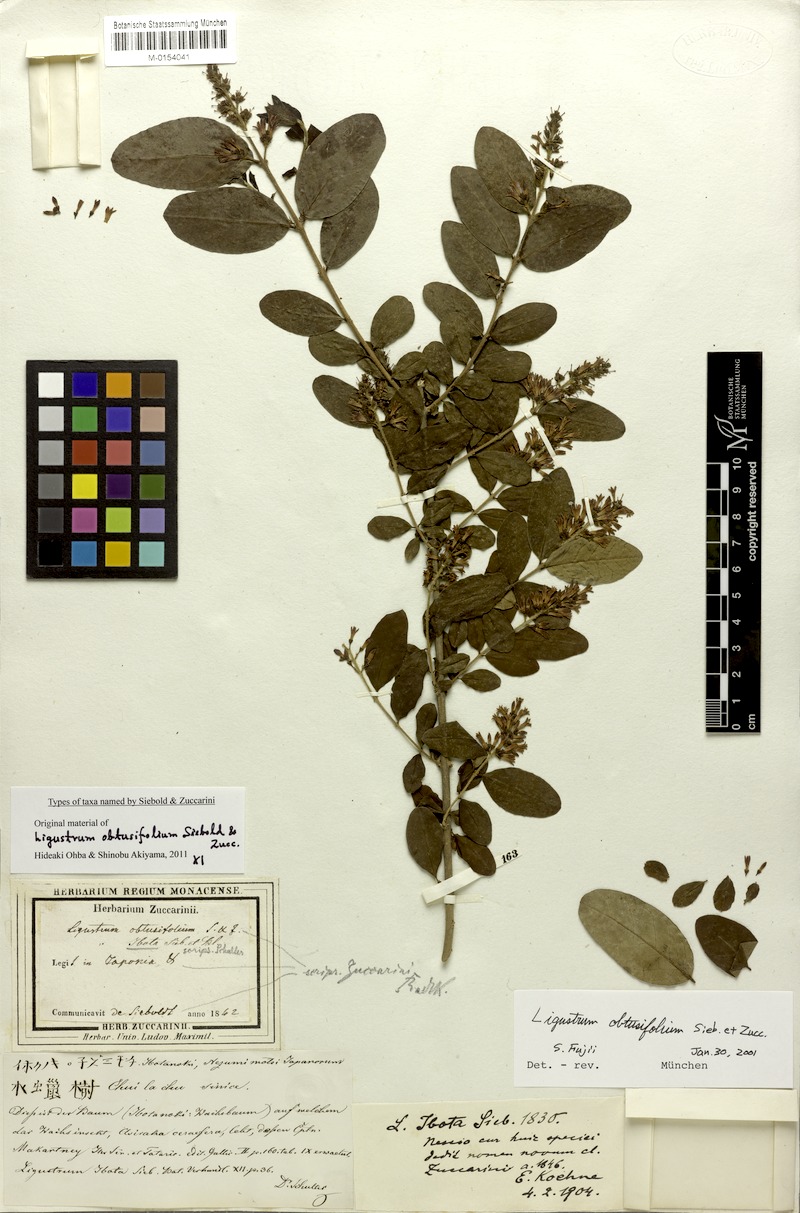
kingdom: Plantae
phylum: Tracheophyta
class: Magnoliopsida
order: Lamiales
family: Oleaceae
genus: Ligustrum
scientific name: Ligustrum obtusifolium
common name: Border privet
